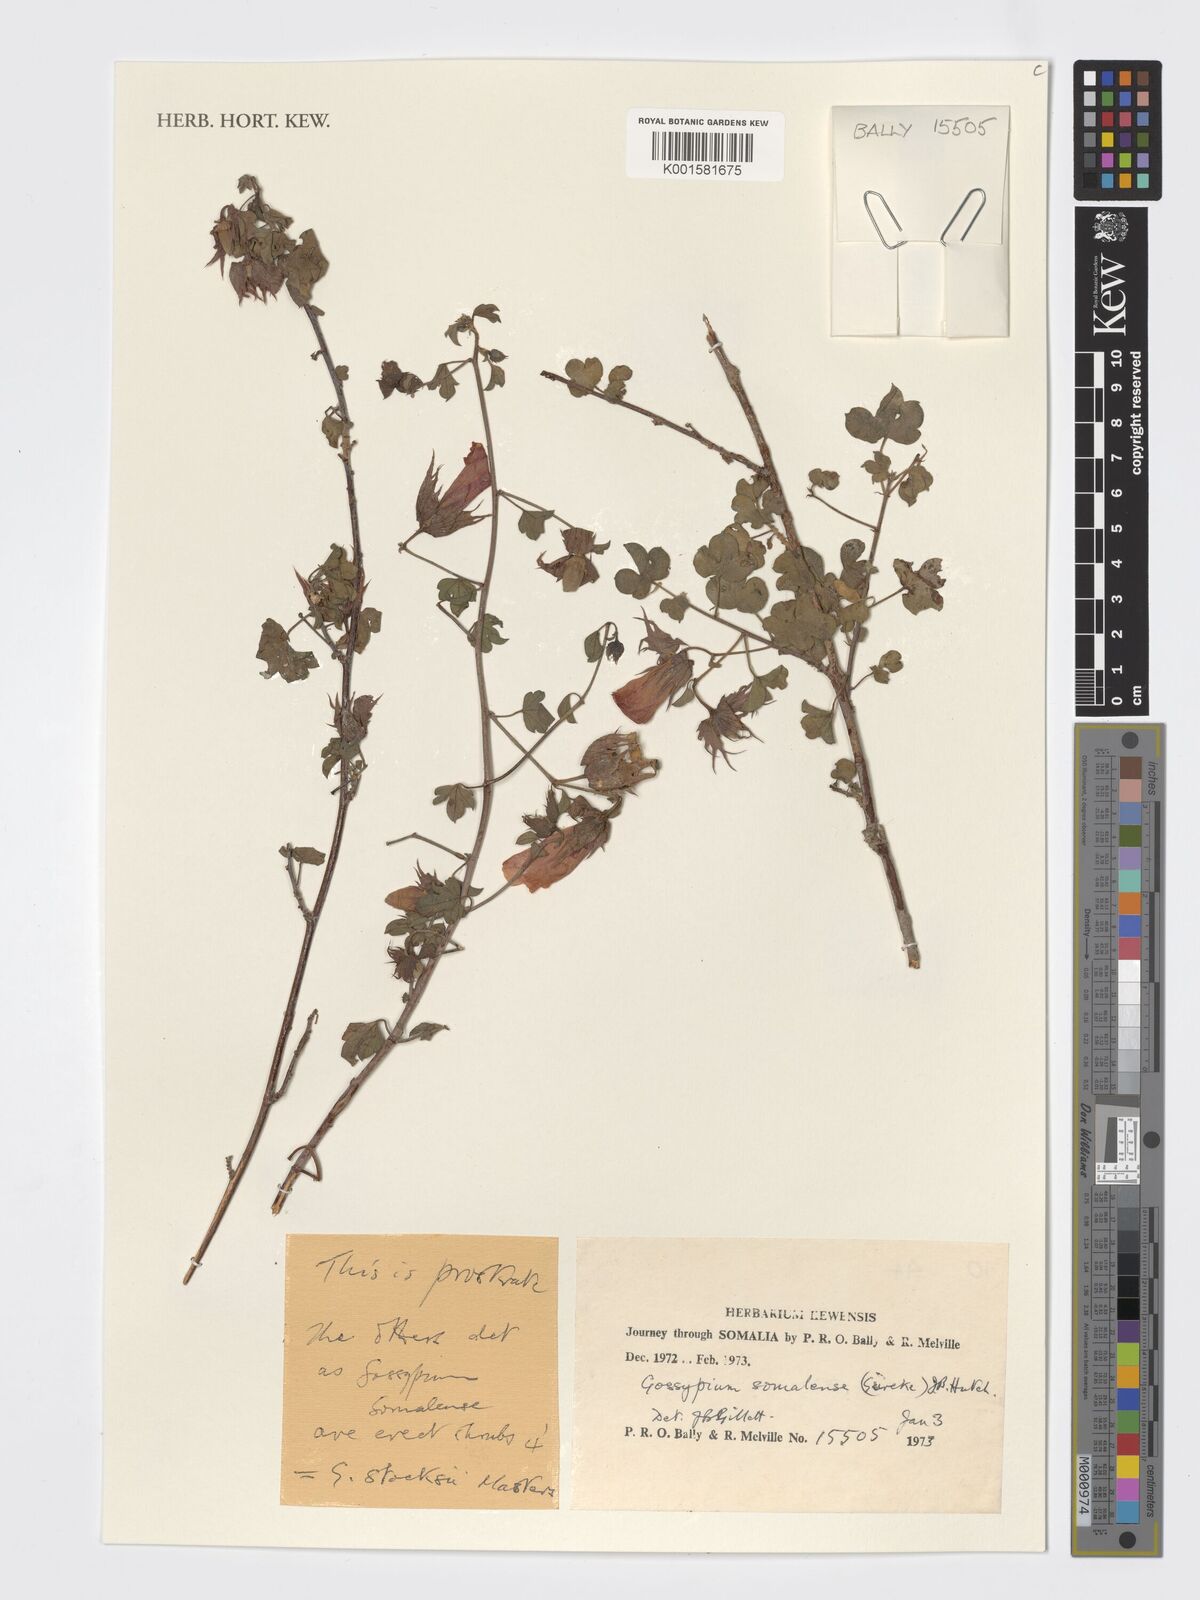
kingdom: Plantae
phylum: Tracheophyta
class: Magnoliopsida
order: Malvales
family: Malvaceae
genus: Gossypium
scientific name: Gossypium somalense
